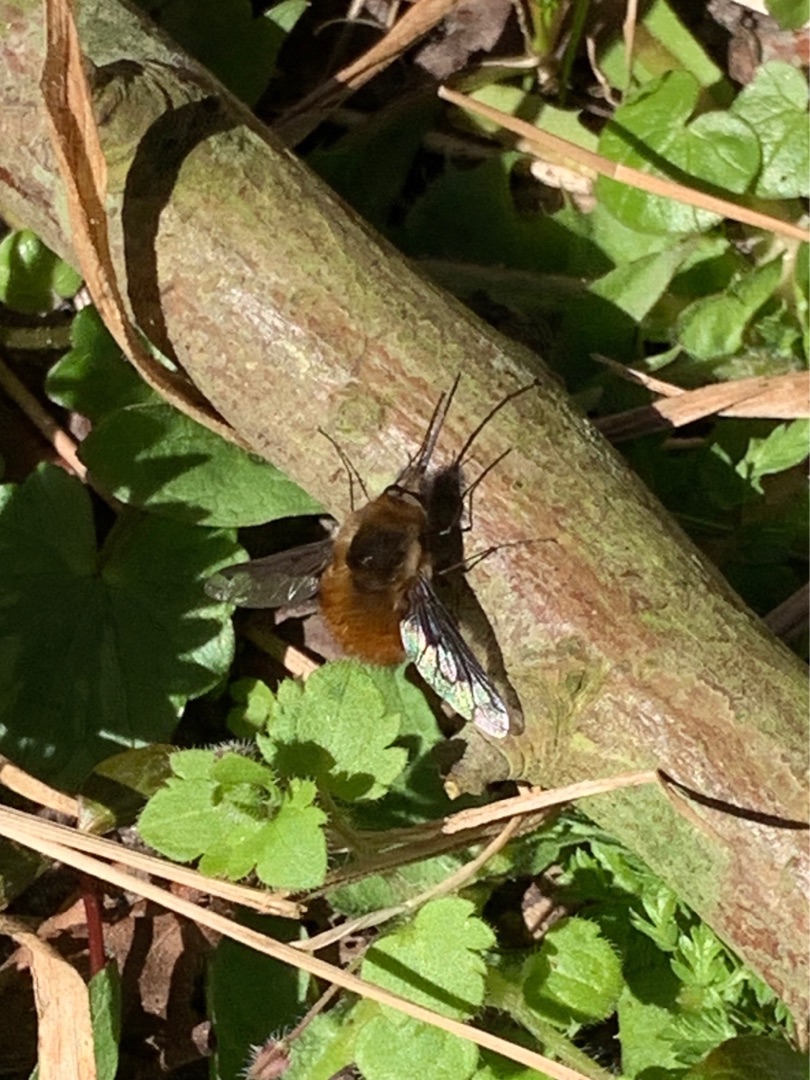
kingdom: Animalia
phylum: Arthropoda
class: Insecta
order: Diptera
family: Bombyliidae
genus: Bombylius
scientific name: Bombylius major
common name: Stor humleflue
